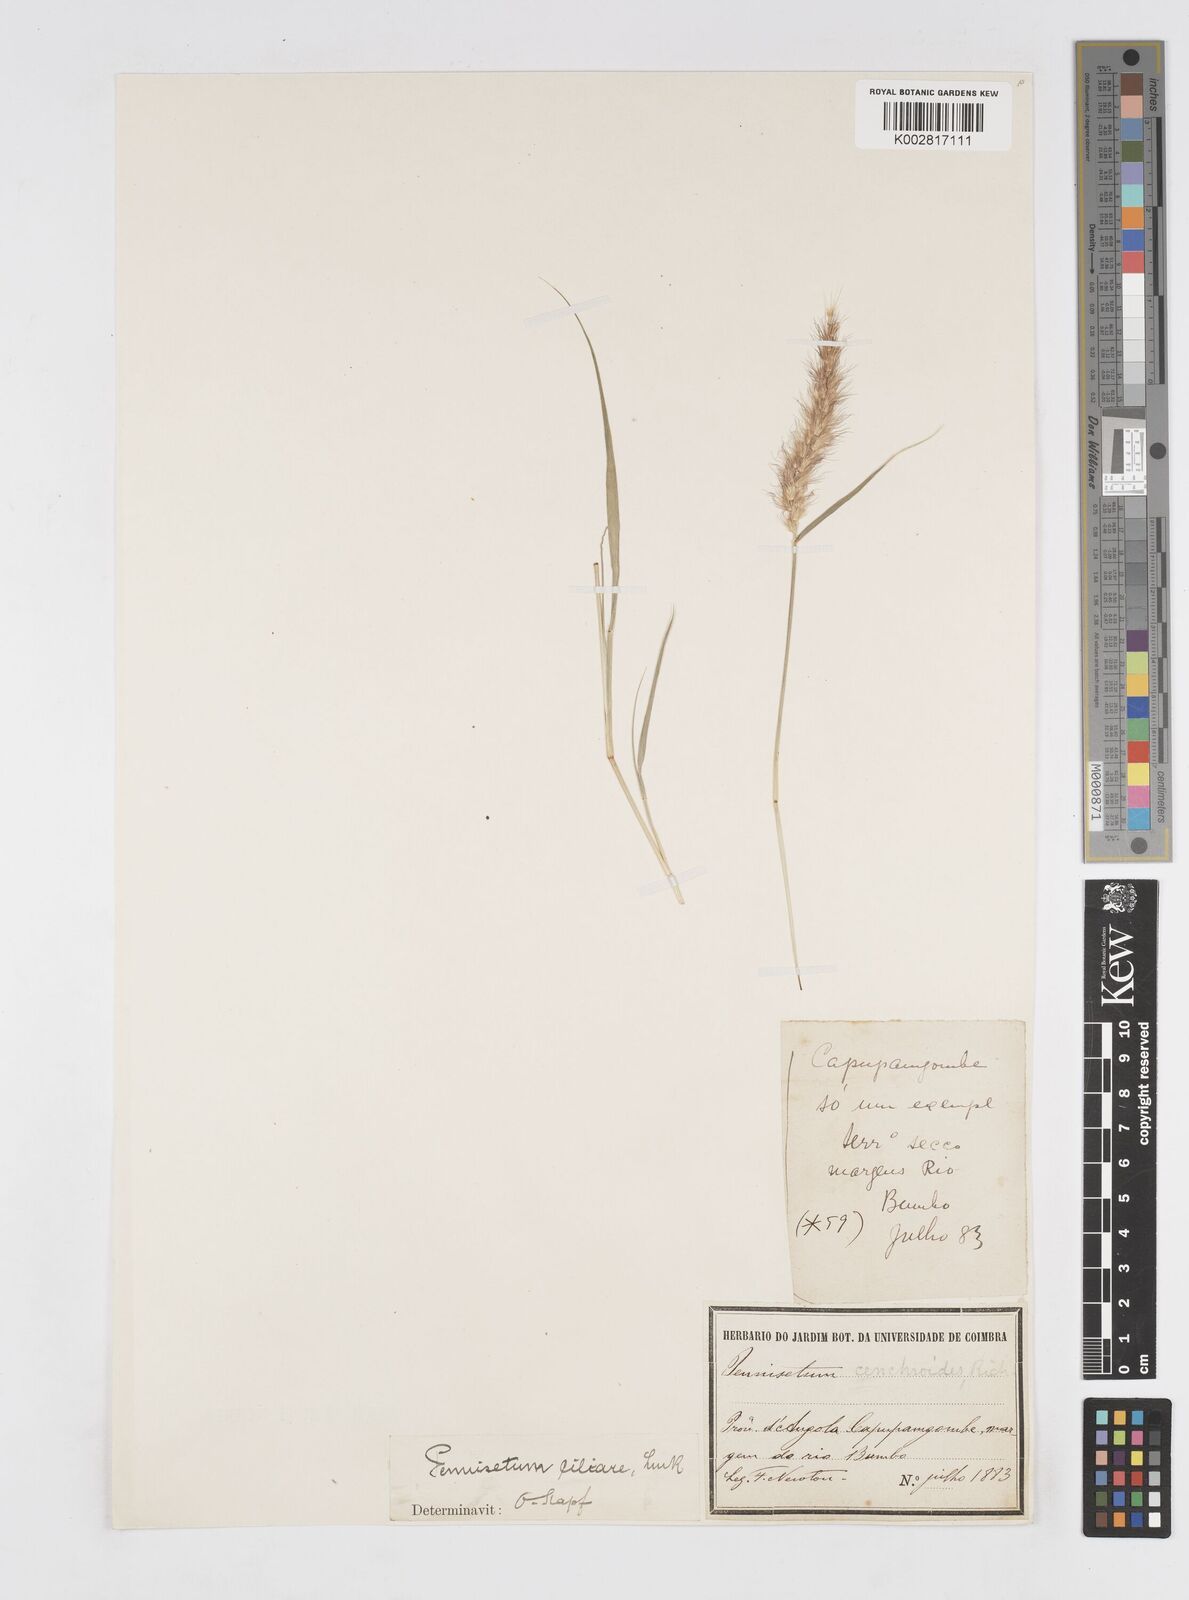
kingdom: Plantae
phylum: Tracheophyta
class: Liliopsida
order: Poales
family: Poaceae
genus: Cenchrus
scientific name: Cenchrus ciliaris
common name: Buffelgrass
